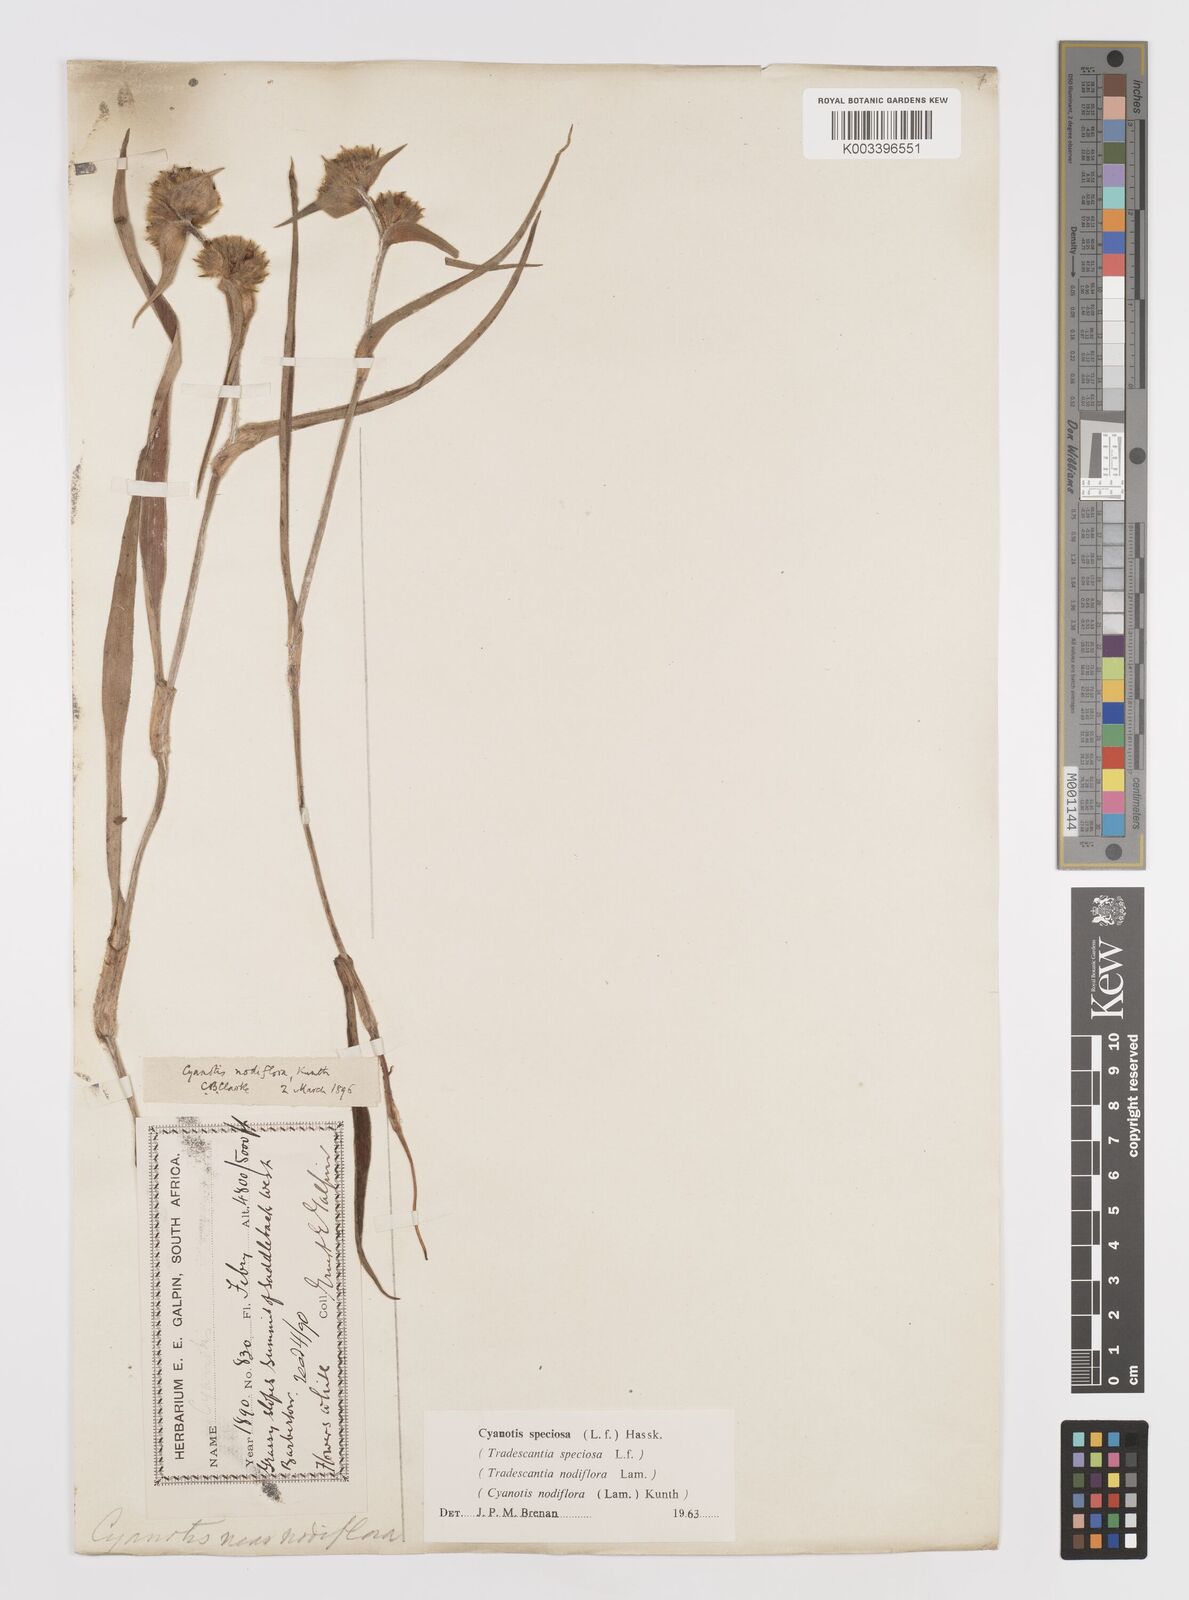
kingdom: Plantae
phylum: Tracheophyta
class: Liliopsida
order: Commelinales
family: Commelinaceae
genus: Cyanotis
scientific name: Cyanotis speciosa
